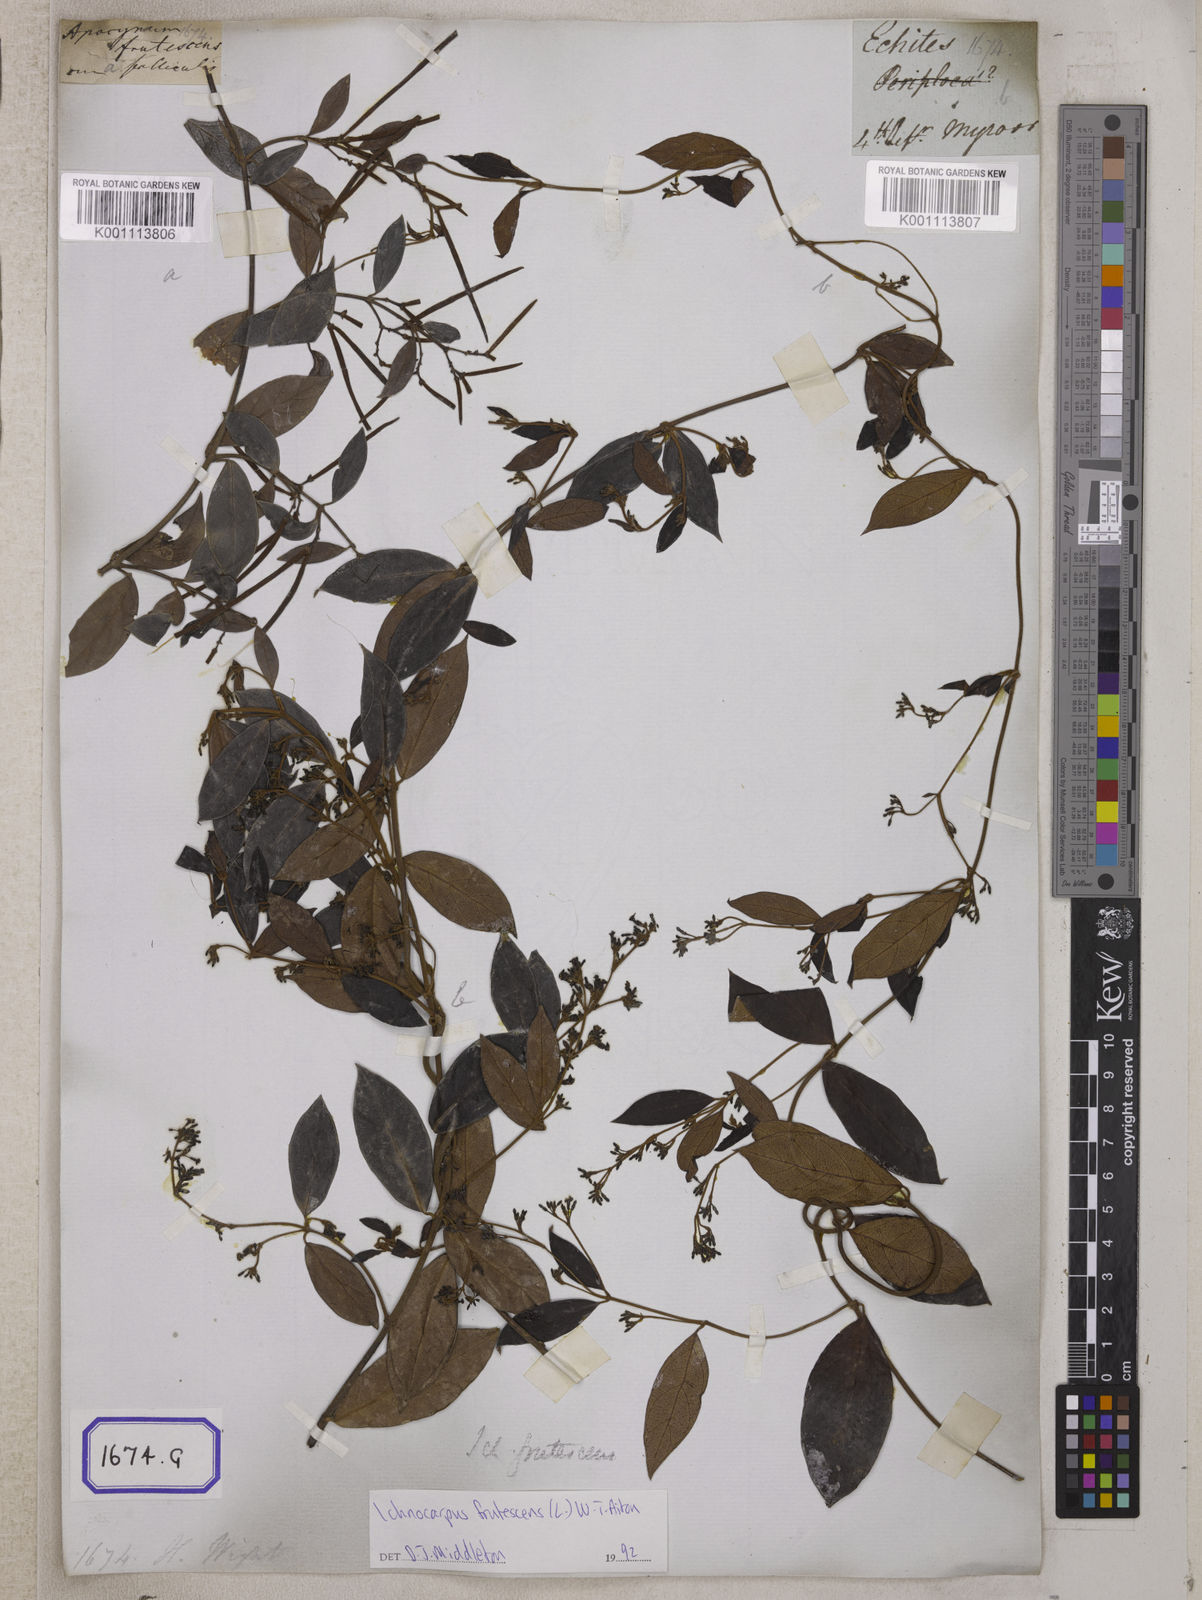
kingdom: Plantae
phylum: Tracheophyta
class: Magnoliopsida
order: Gentianales
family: Apocynaceae
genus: Ichnocarpus
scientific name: Ichnocarpus
